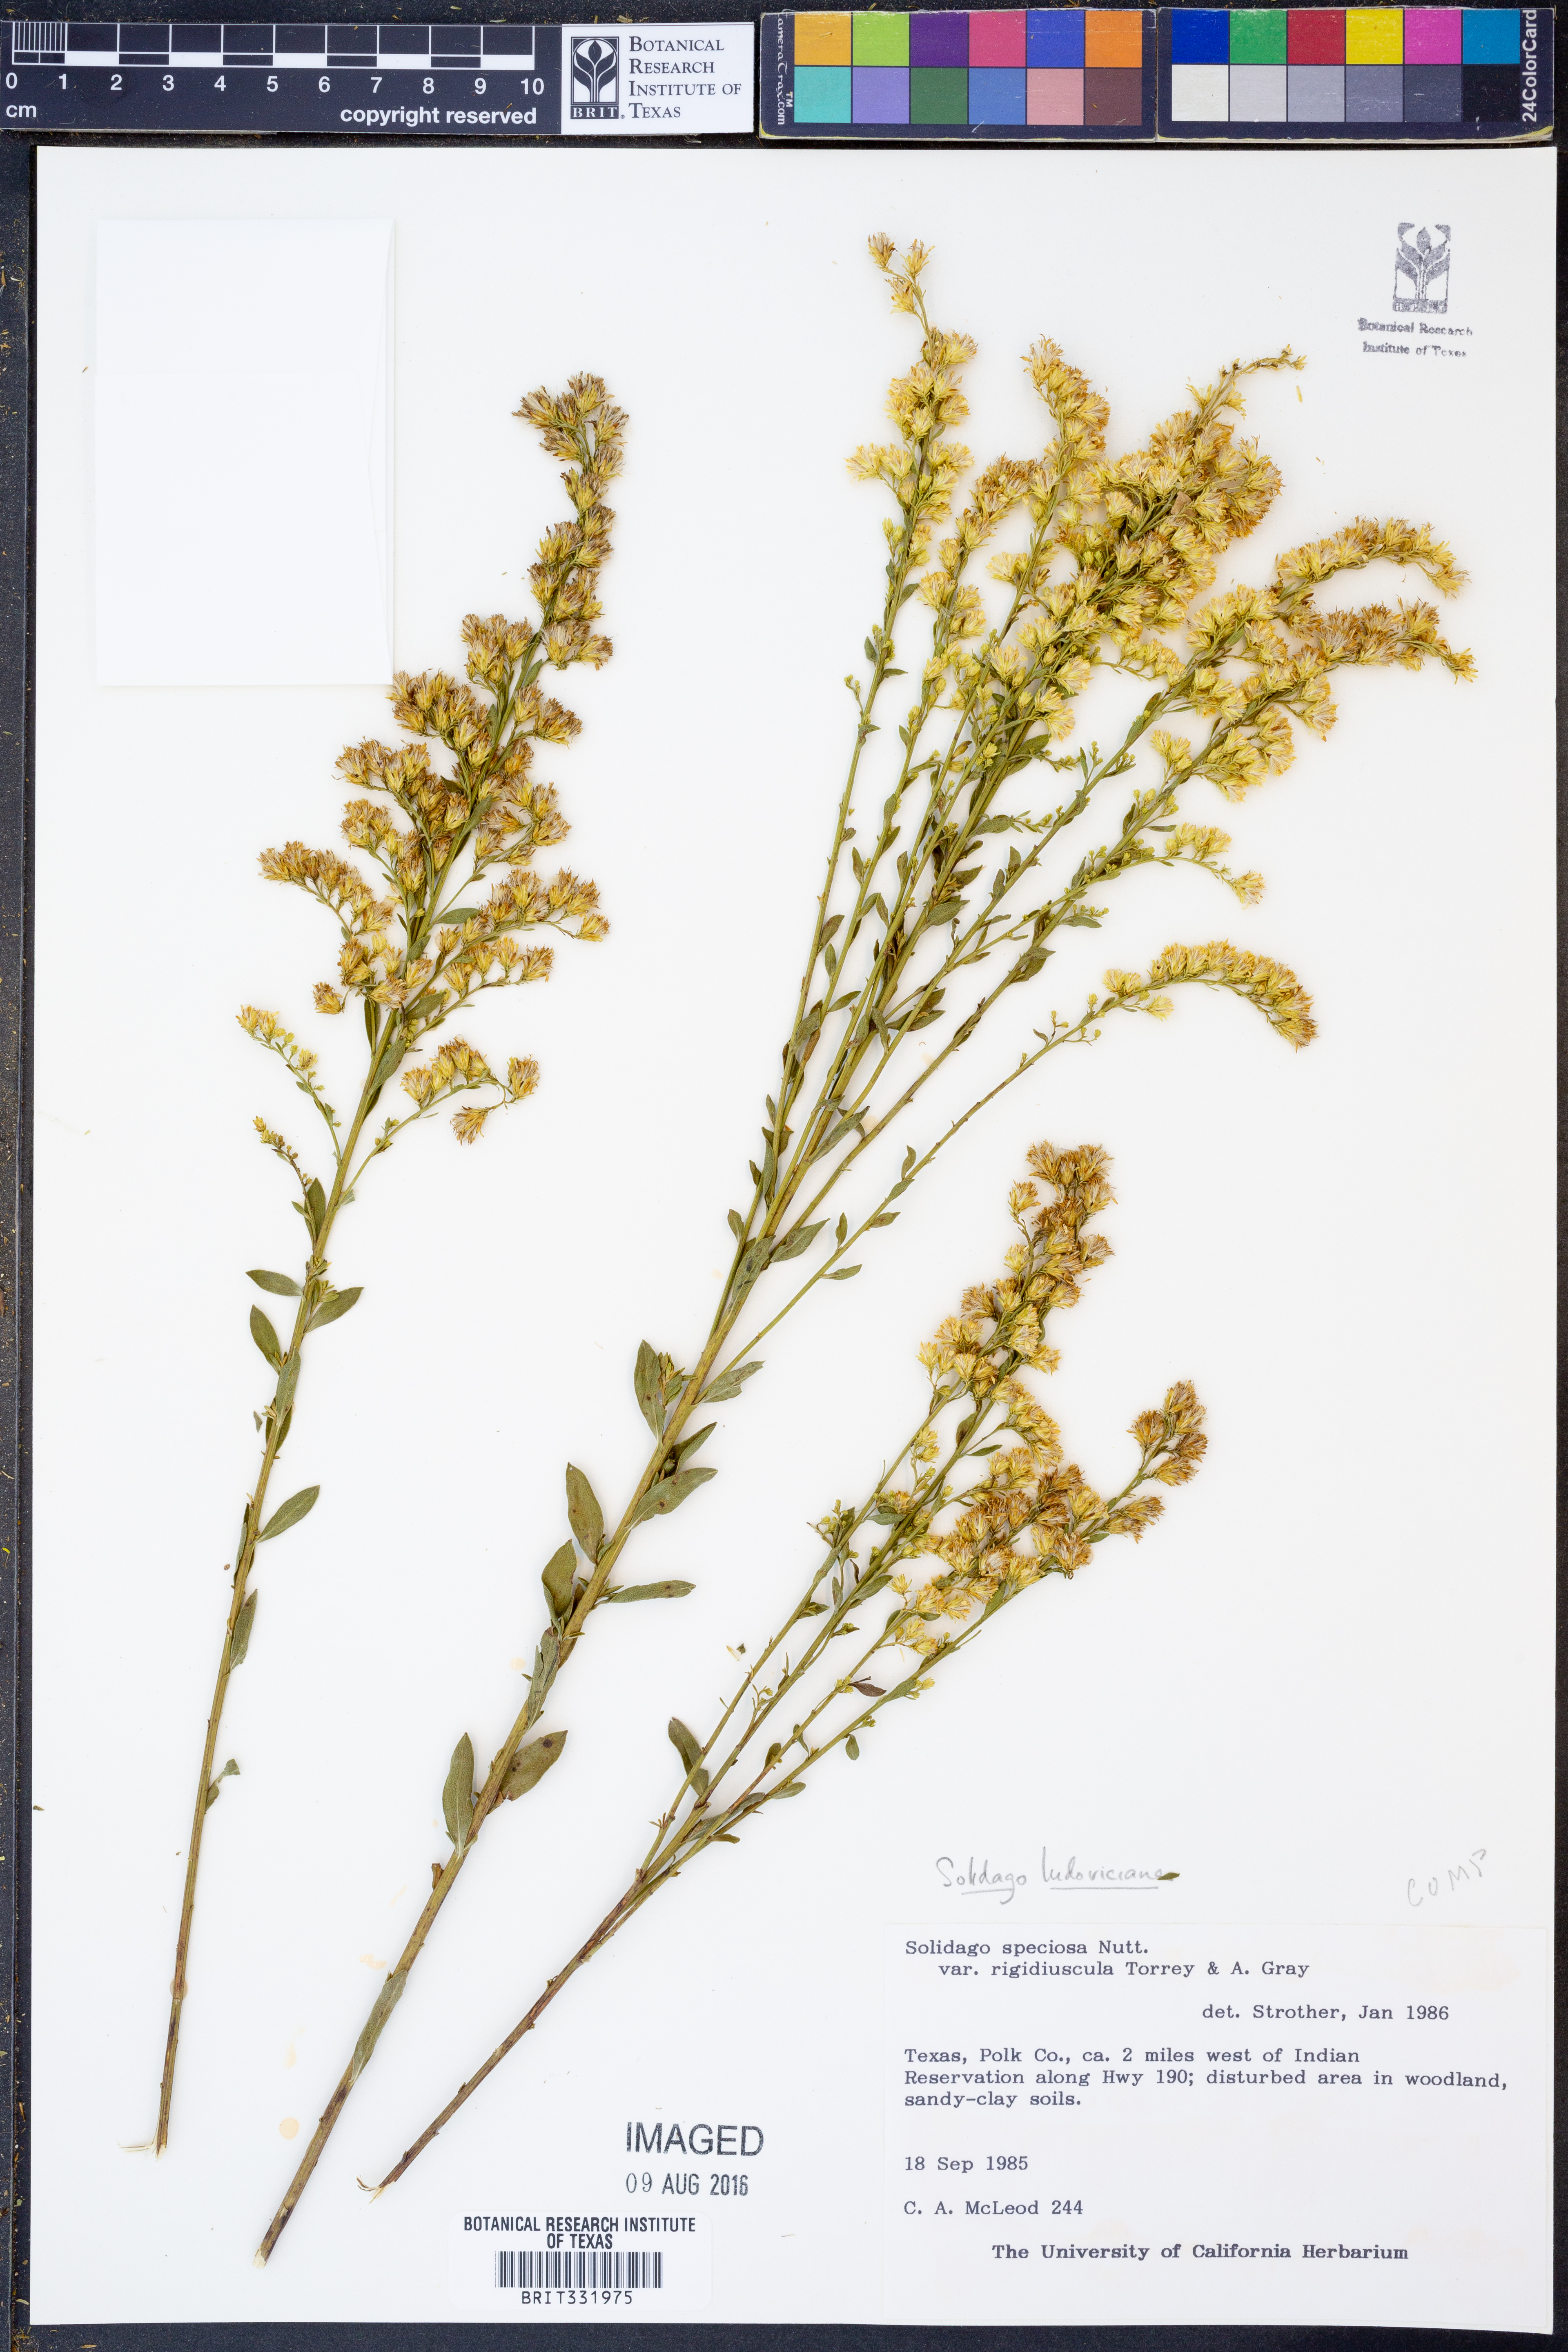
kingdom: Plantae
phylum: Tracheophyta
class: Magnoliopsida
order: Asterales
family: Asteraceae
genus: Solidago
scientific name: Solidago ludoviciana
